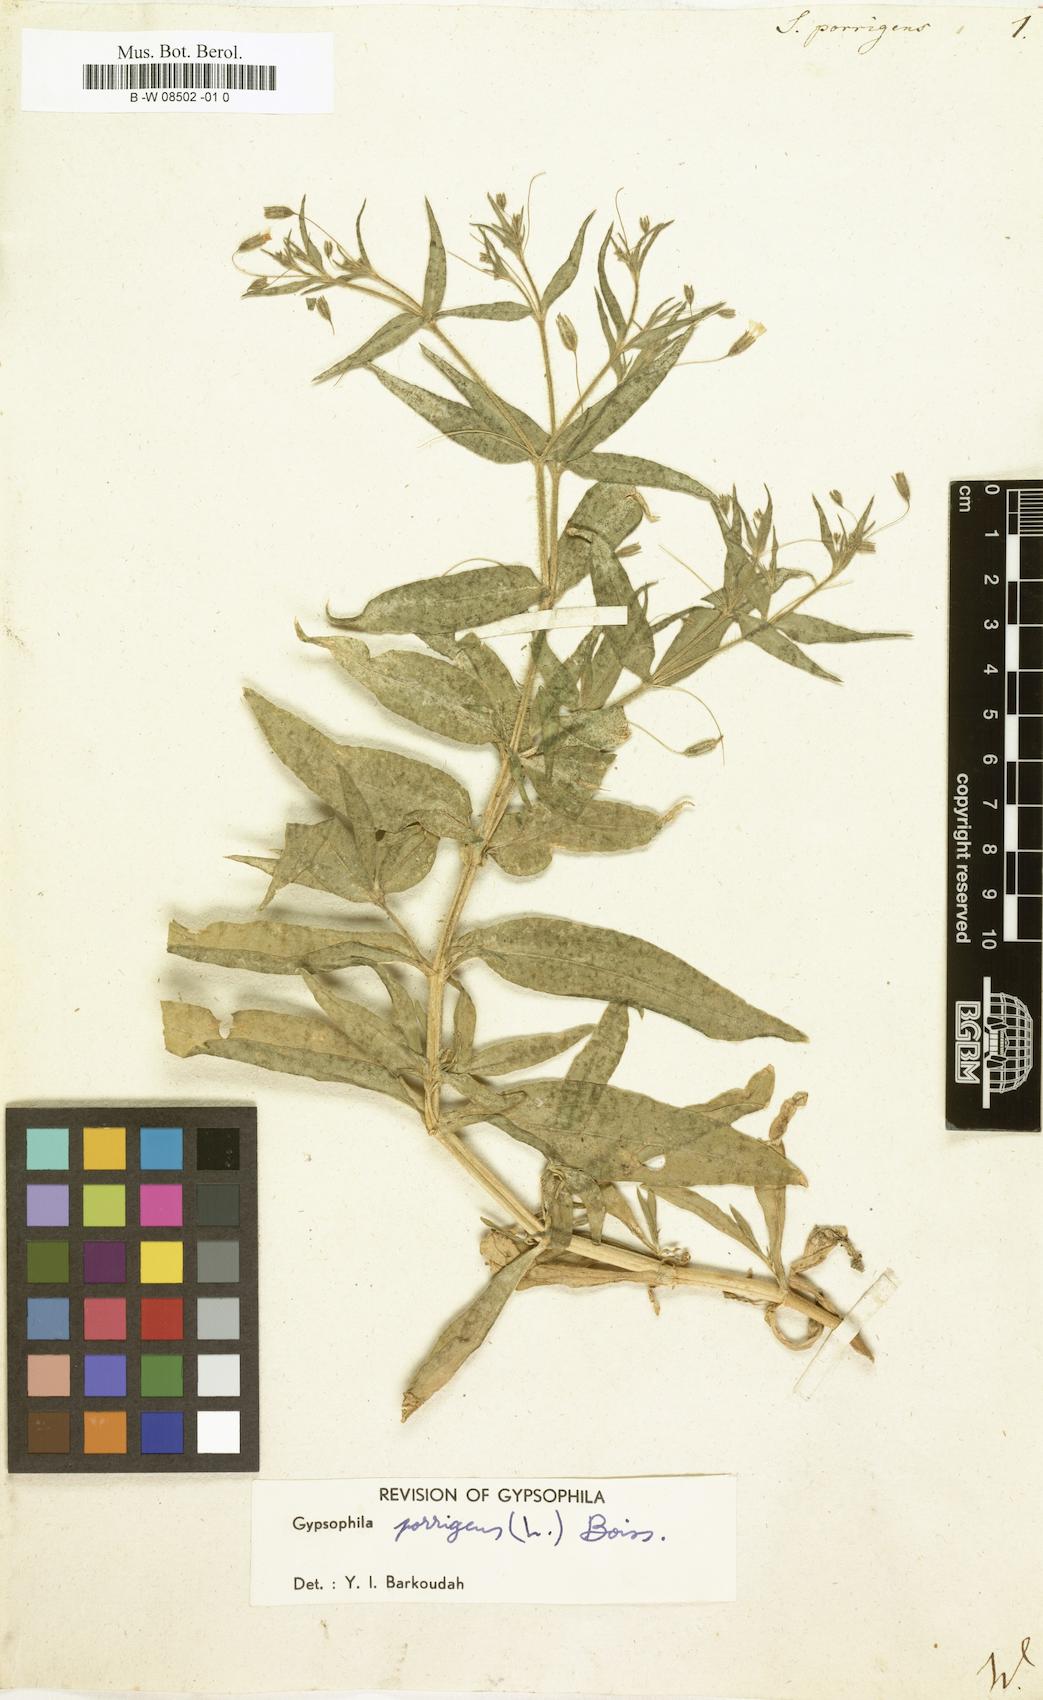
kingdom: Plantae
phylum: Tracheophyta
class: Magnoliopsida
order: Caryophyllales
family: Caryophyllaceae
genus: Gypsophila
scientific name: Gypsophila pilosa
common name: Turkish baby's-breath
